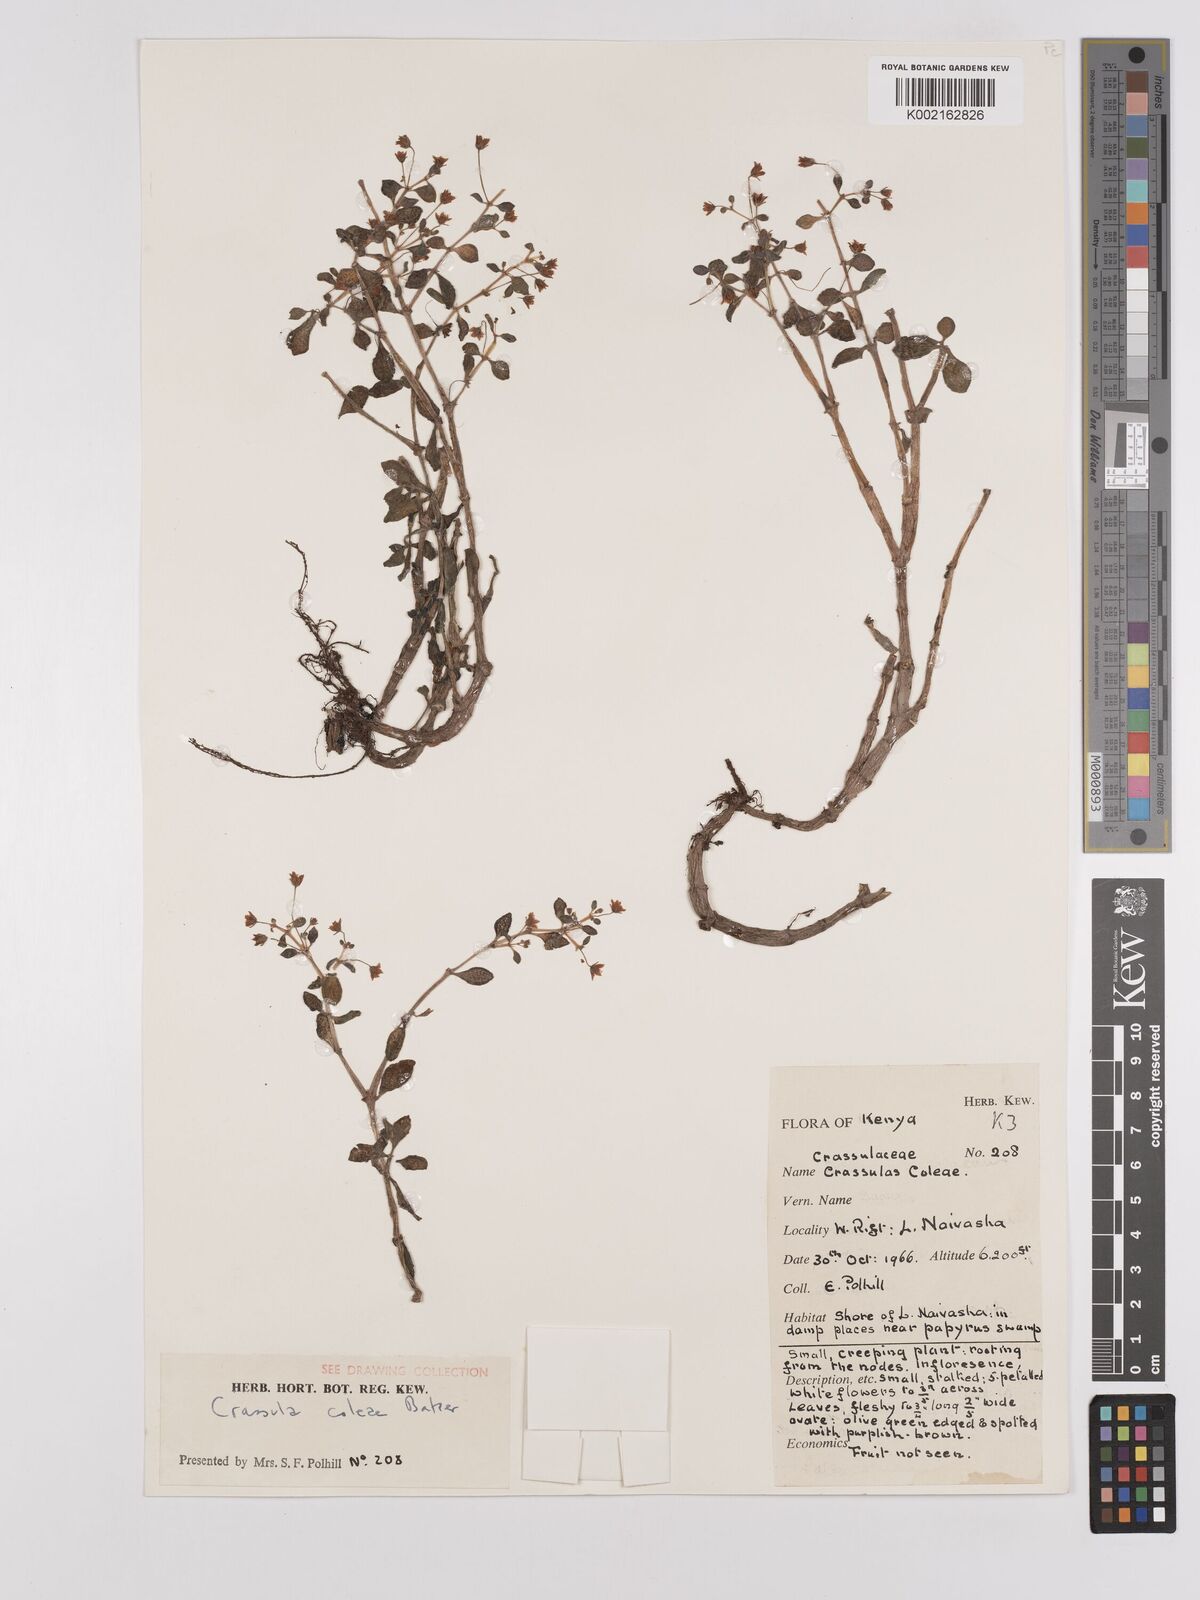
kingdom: Plantae
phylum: Tracheophyta
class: Magnoliopsida
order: Saxifragales
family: Crassulaceae
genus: Crassula
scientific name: Crassula volkensii
